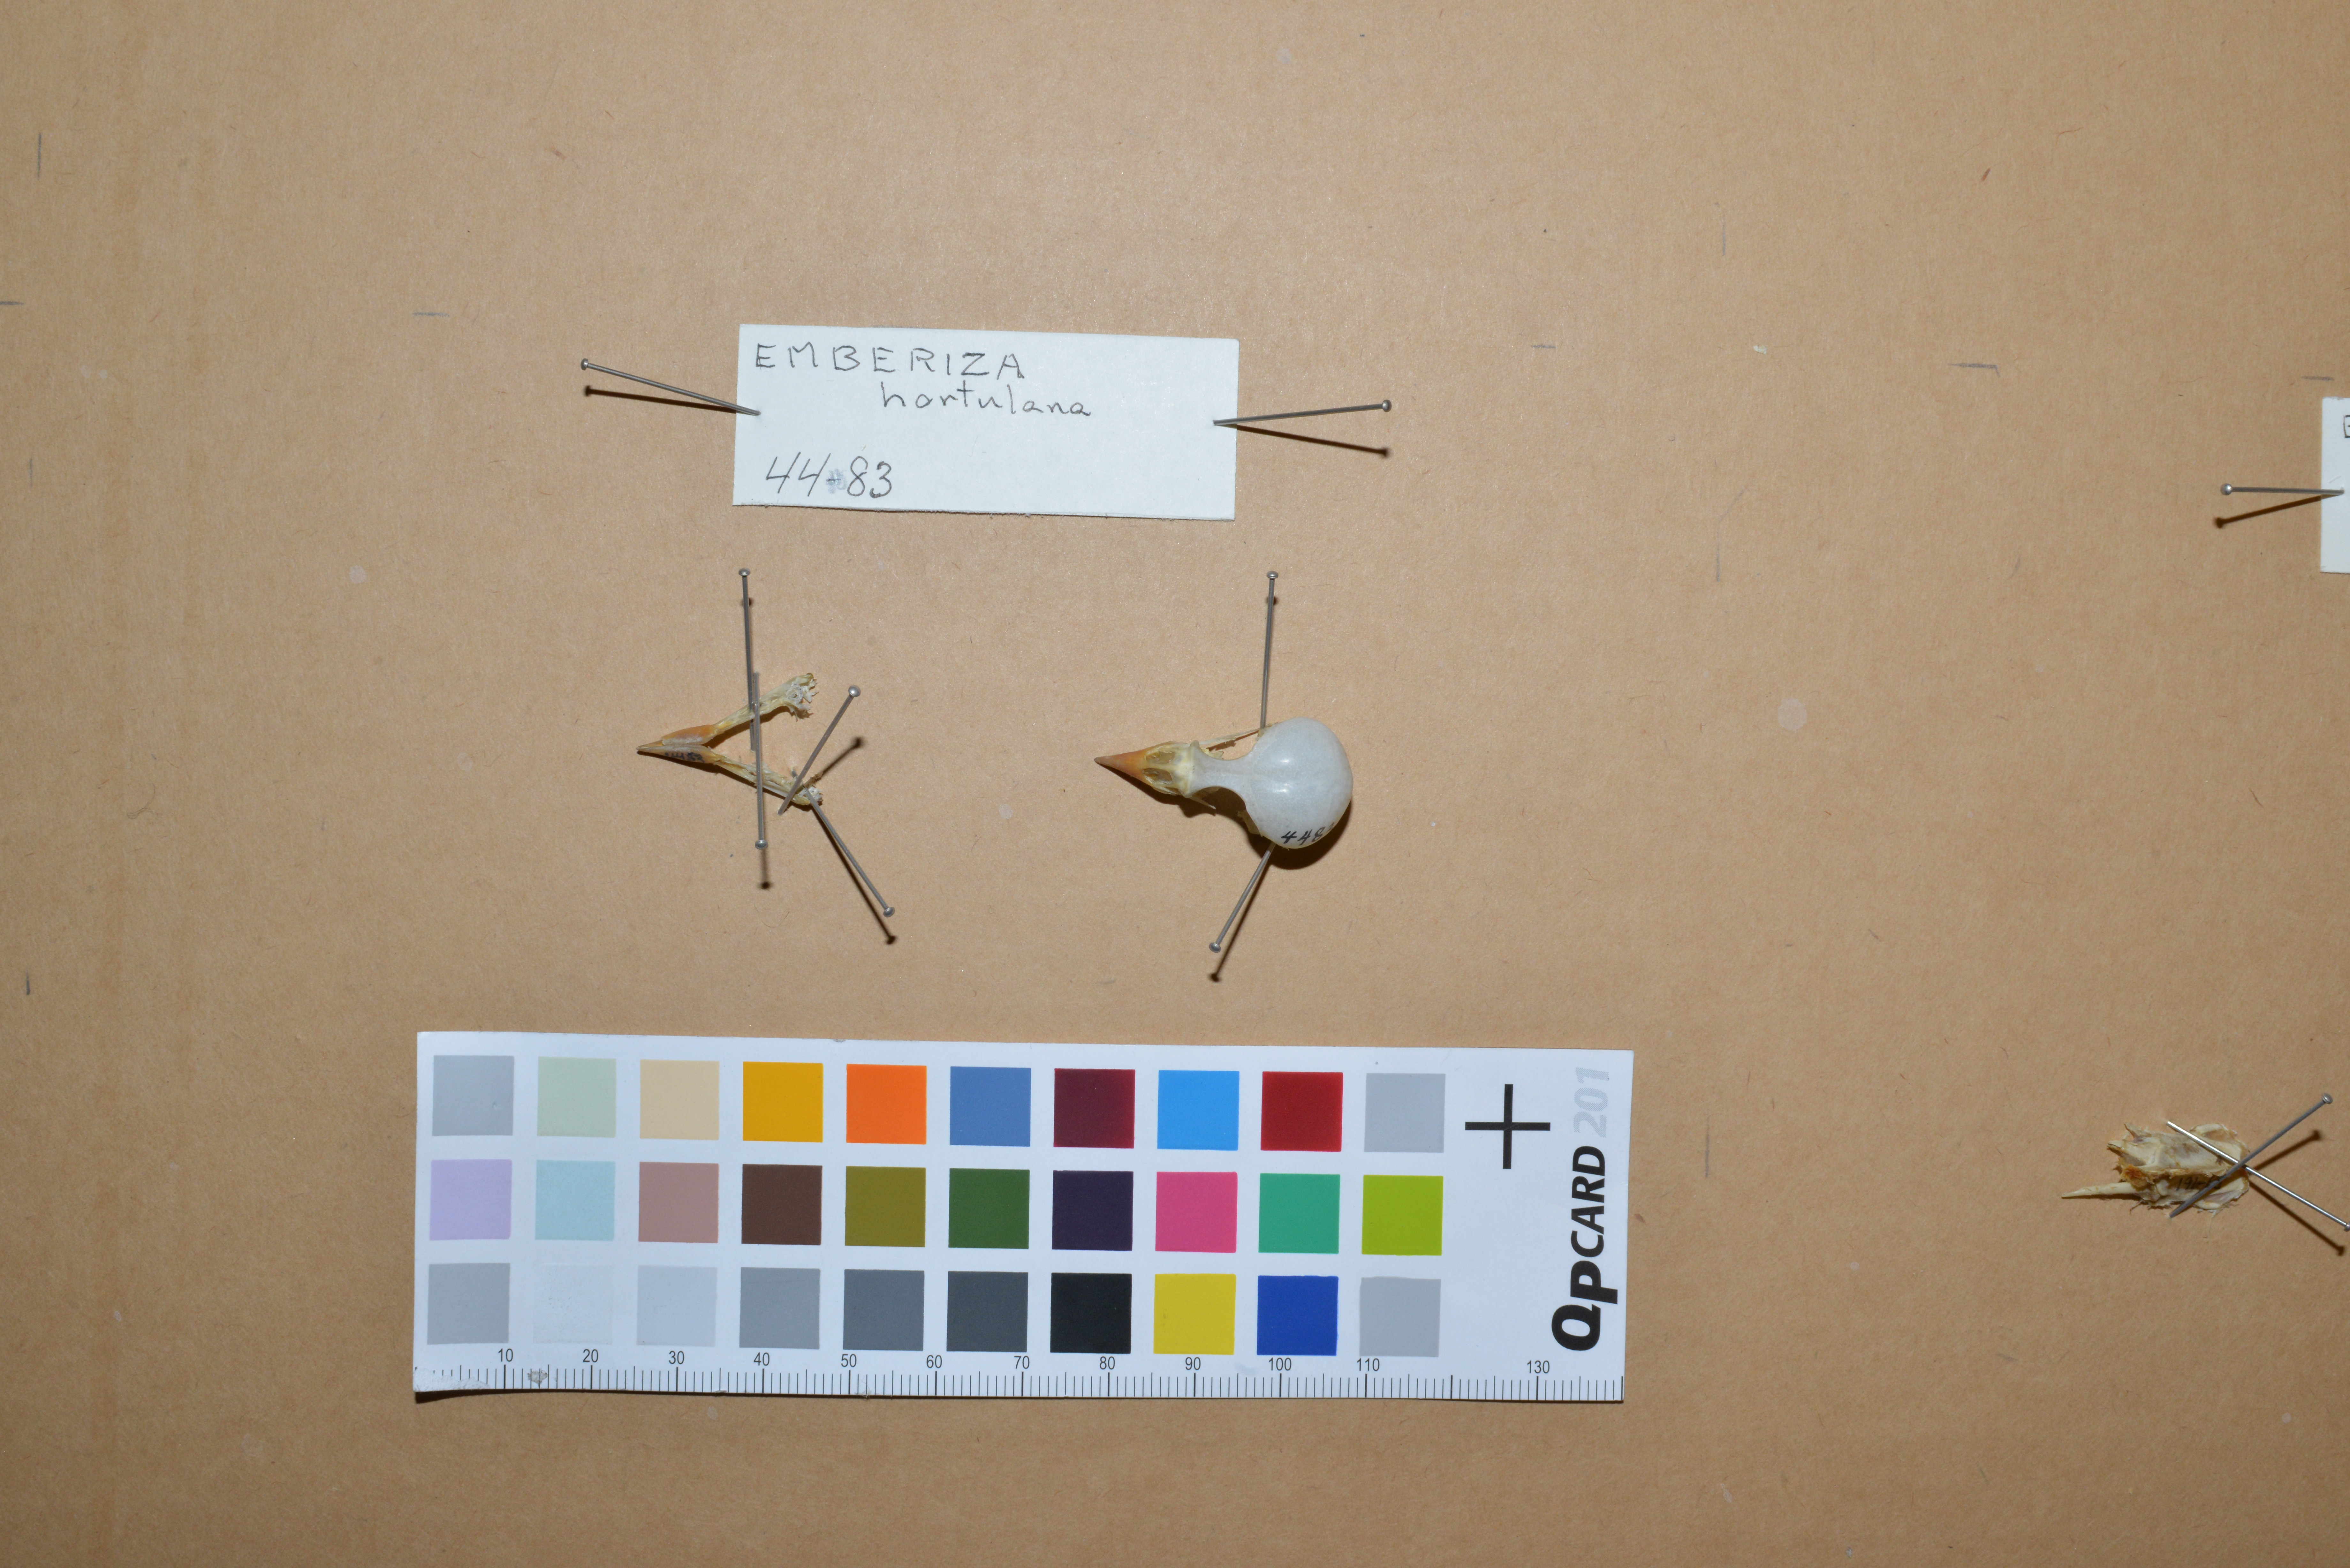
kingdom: Animalia
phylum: Chordata
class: Aves
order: Passeriformes
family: Emberizidae
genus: Emberiza
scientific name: Emberiza hortulana
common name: Ortolan bunting
